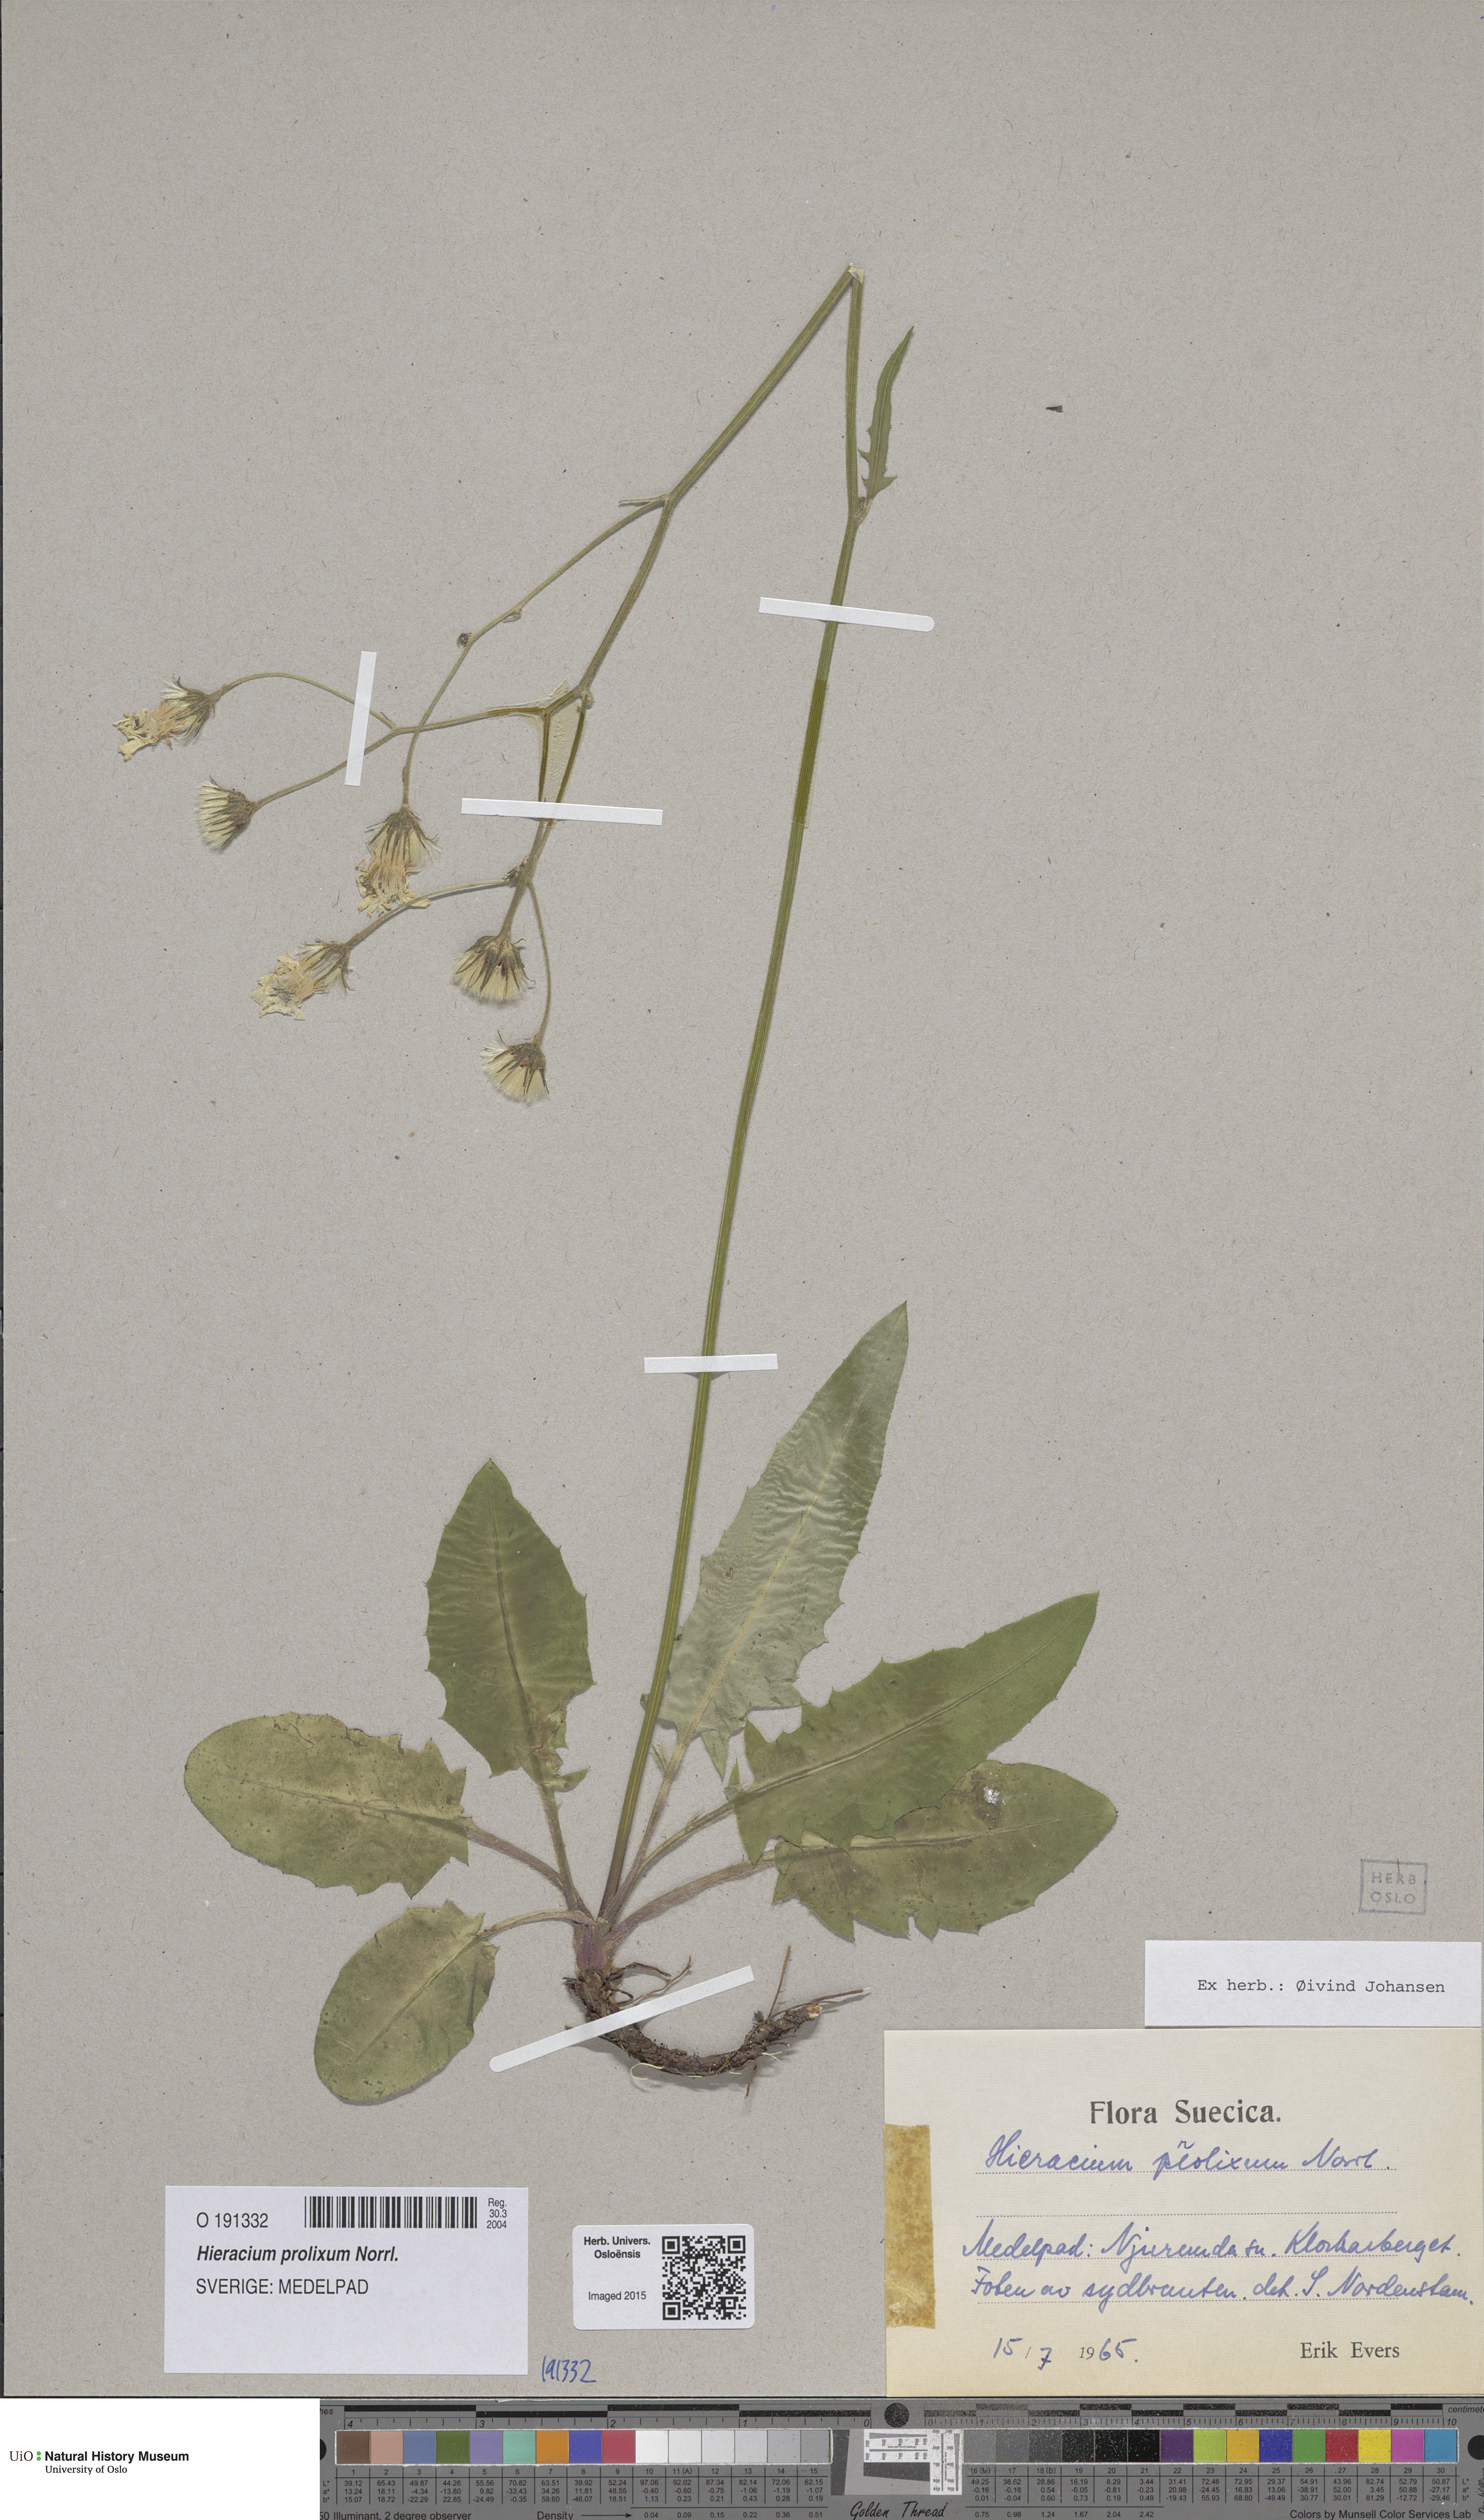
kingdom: Plantae
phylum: Tracheophyta
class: Magnoliopsida
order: Asterales
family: Asteraceae
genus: Hieracium
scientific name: Hieracium bifidum
